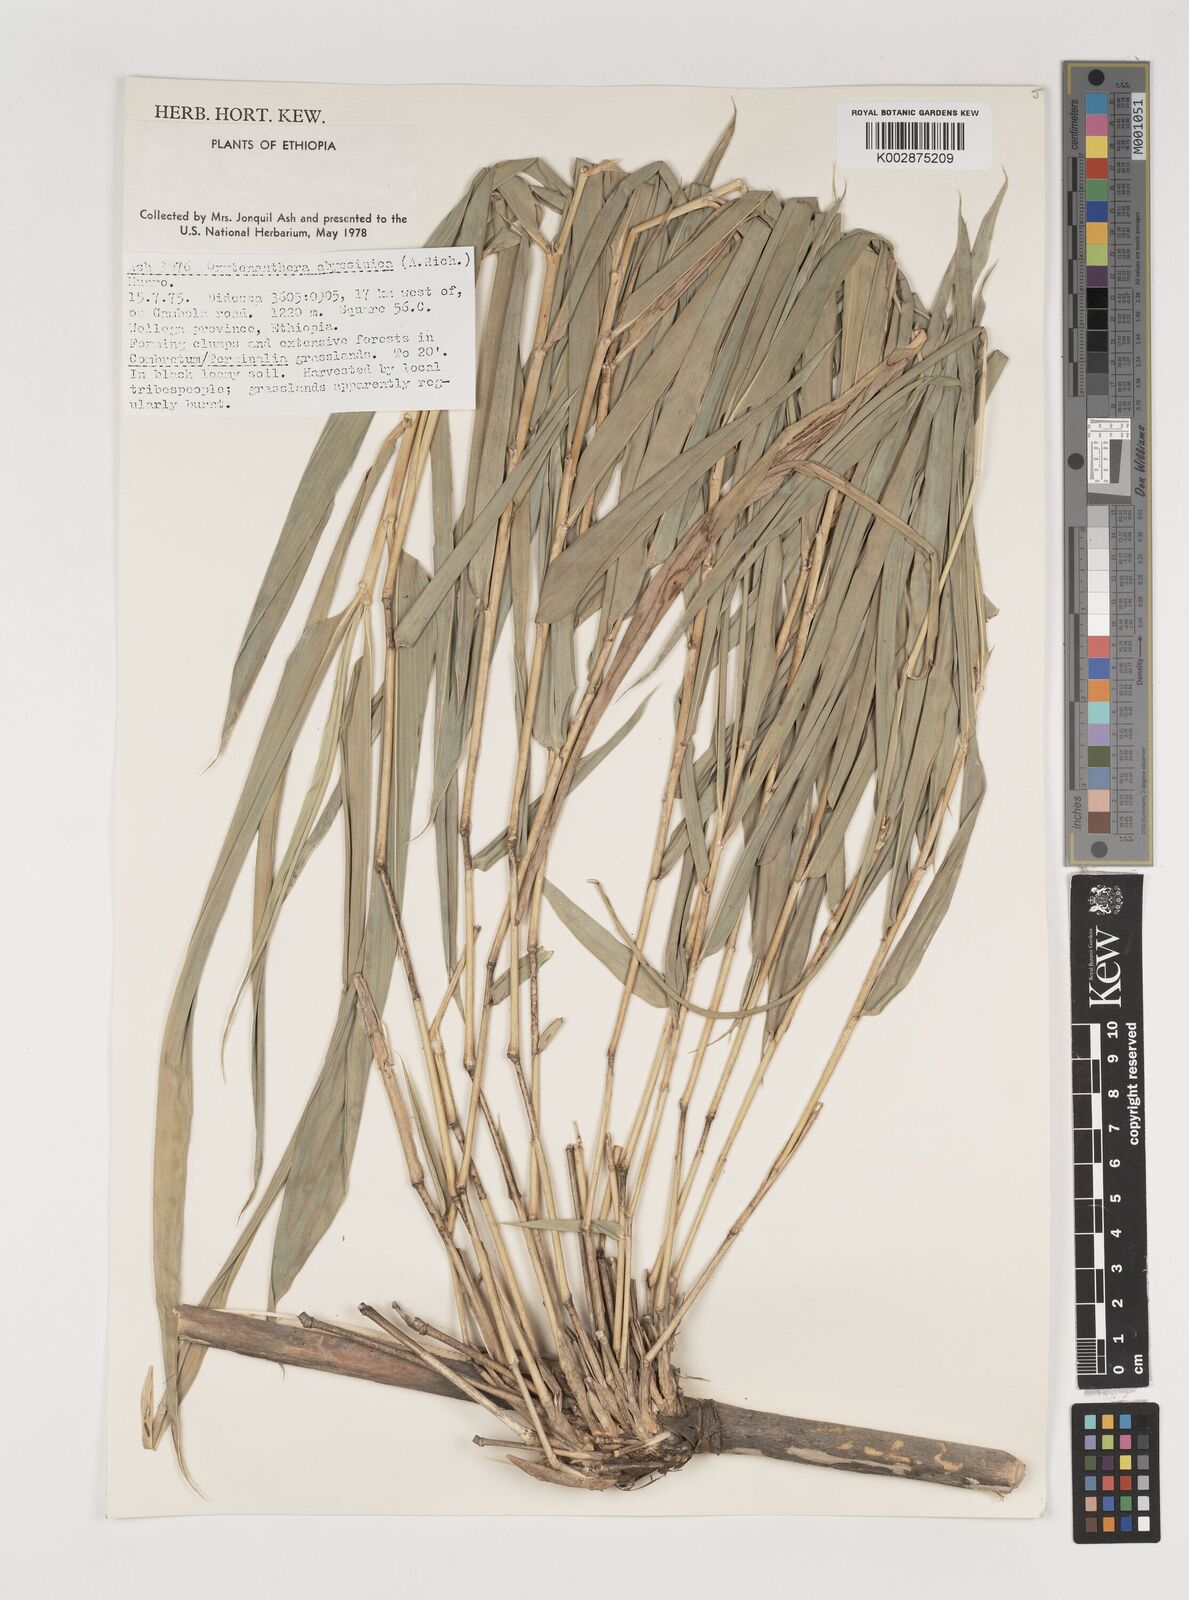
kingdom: Plantae
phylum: Tracheophyta
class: Liliopsida
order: Poales
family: Poaceae
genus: Oxytenanthera
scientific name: Oxytenanthera abyssinica
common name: Wine bamboo
